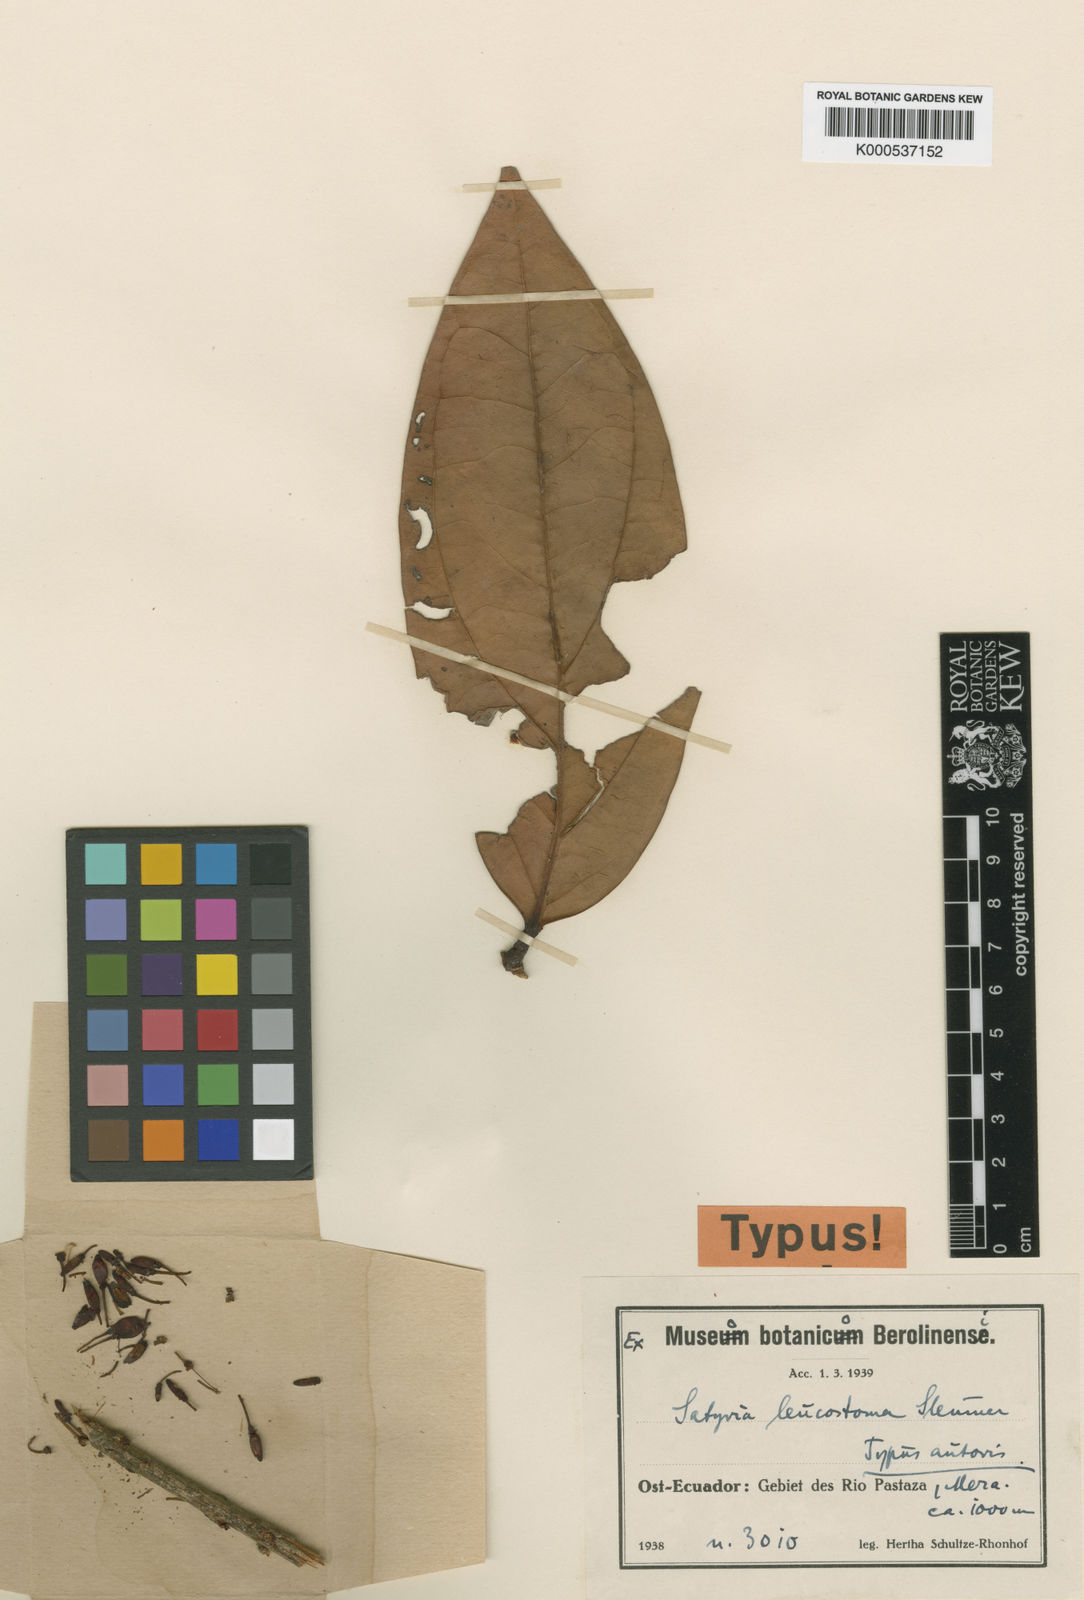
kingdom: Plantae
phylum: Tracheophyta
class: Magnoliopsida
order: Ericales
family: Ericaceae
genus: Satyria
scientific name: Satyria leucostoma
